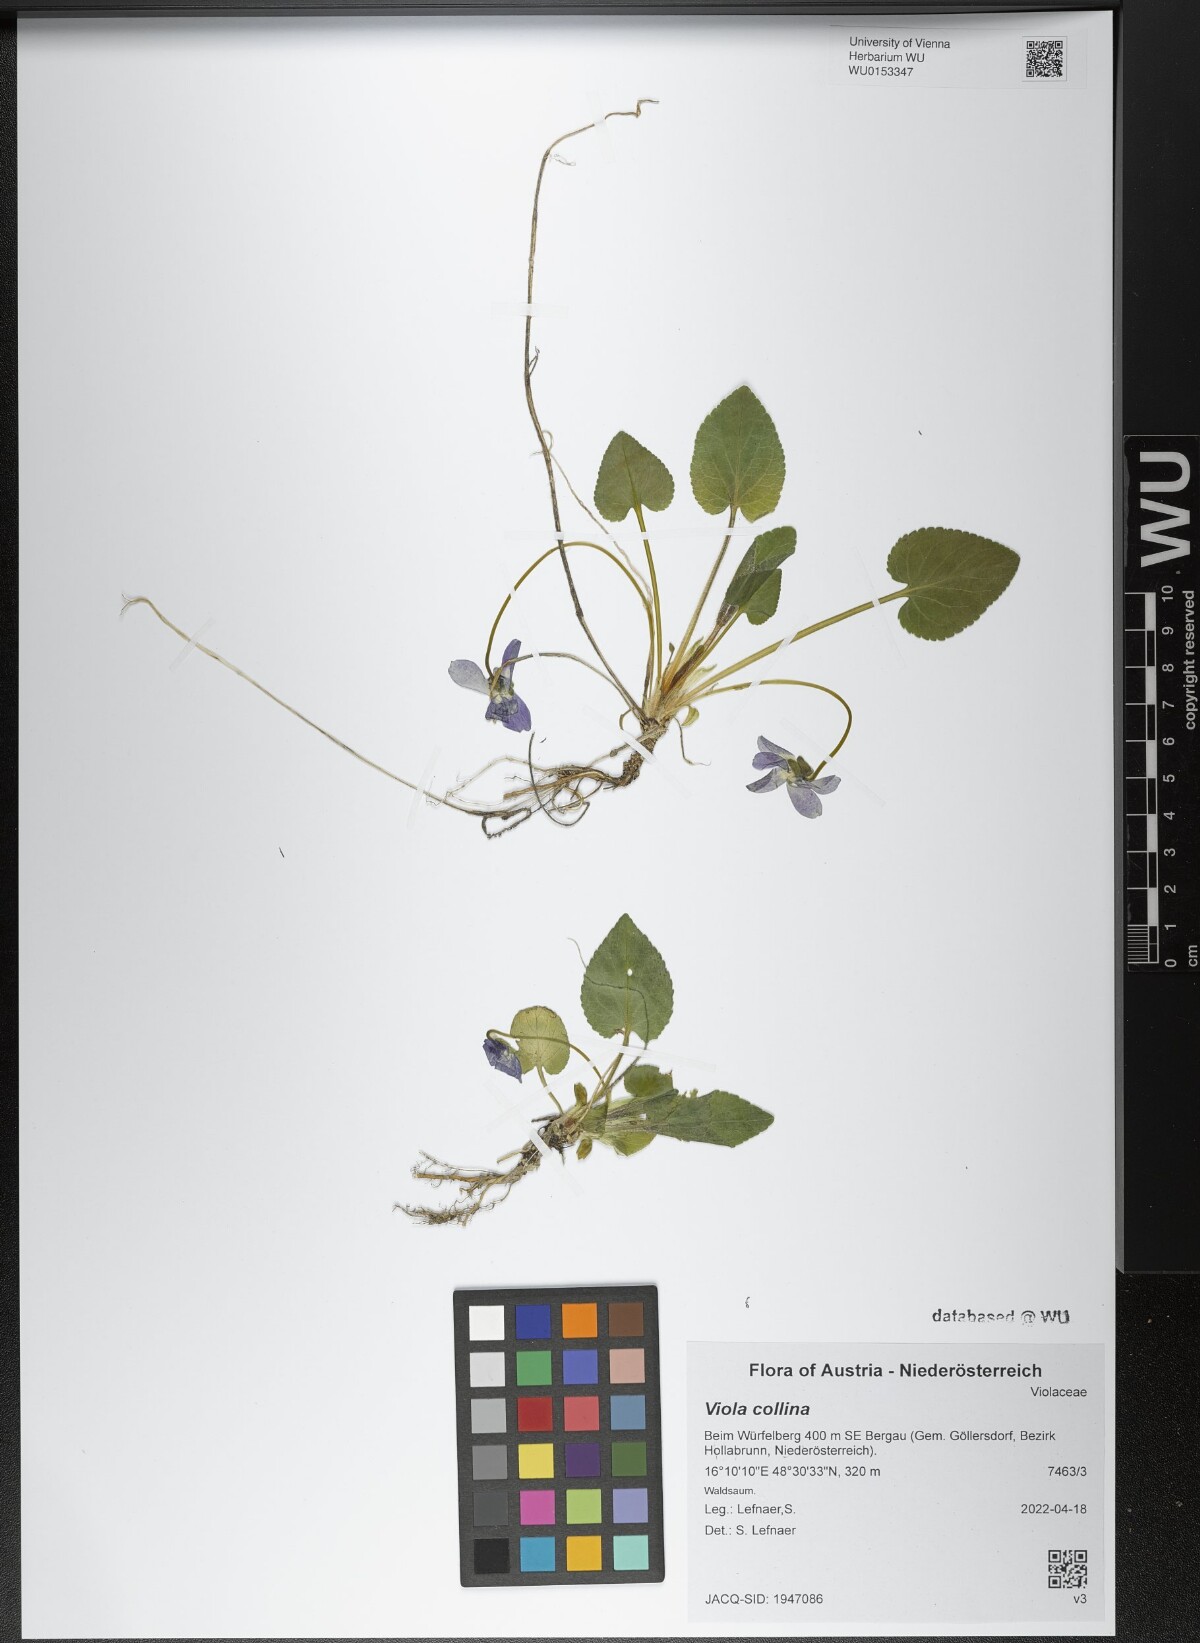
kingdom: Plantae
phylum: Tracheophyta
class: Magnoliopsida
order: Malpighiales
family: Violaceae
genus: Viola
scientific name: Viola collina
